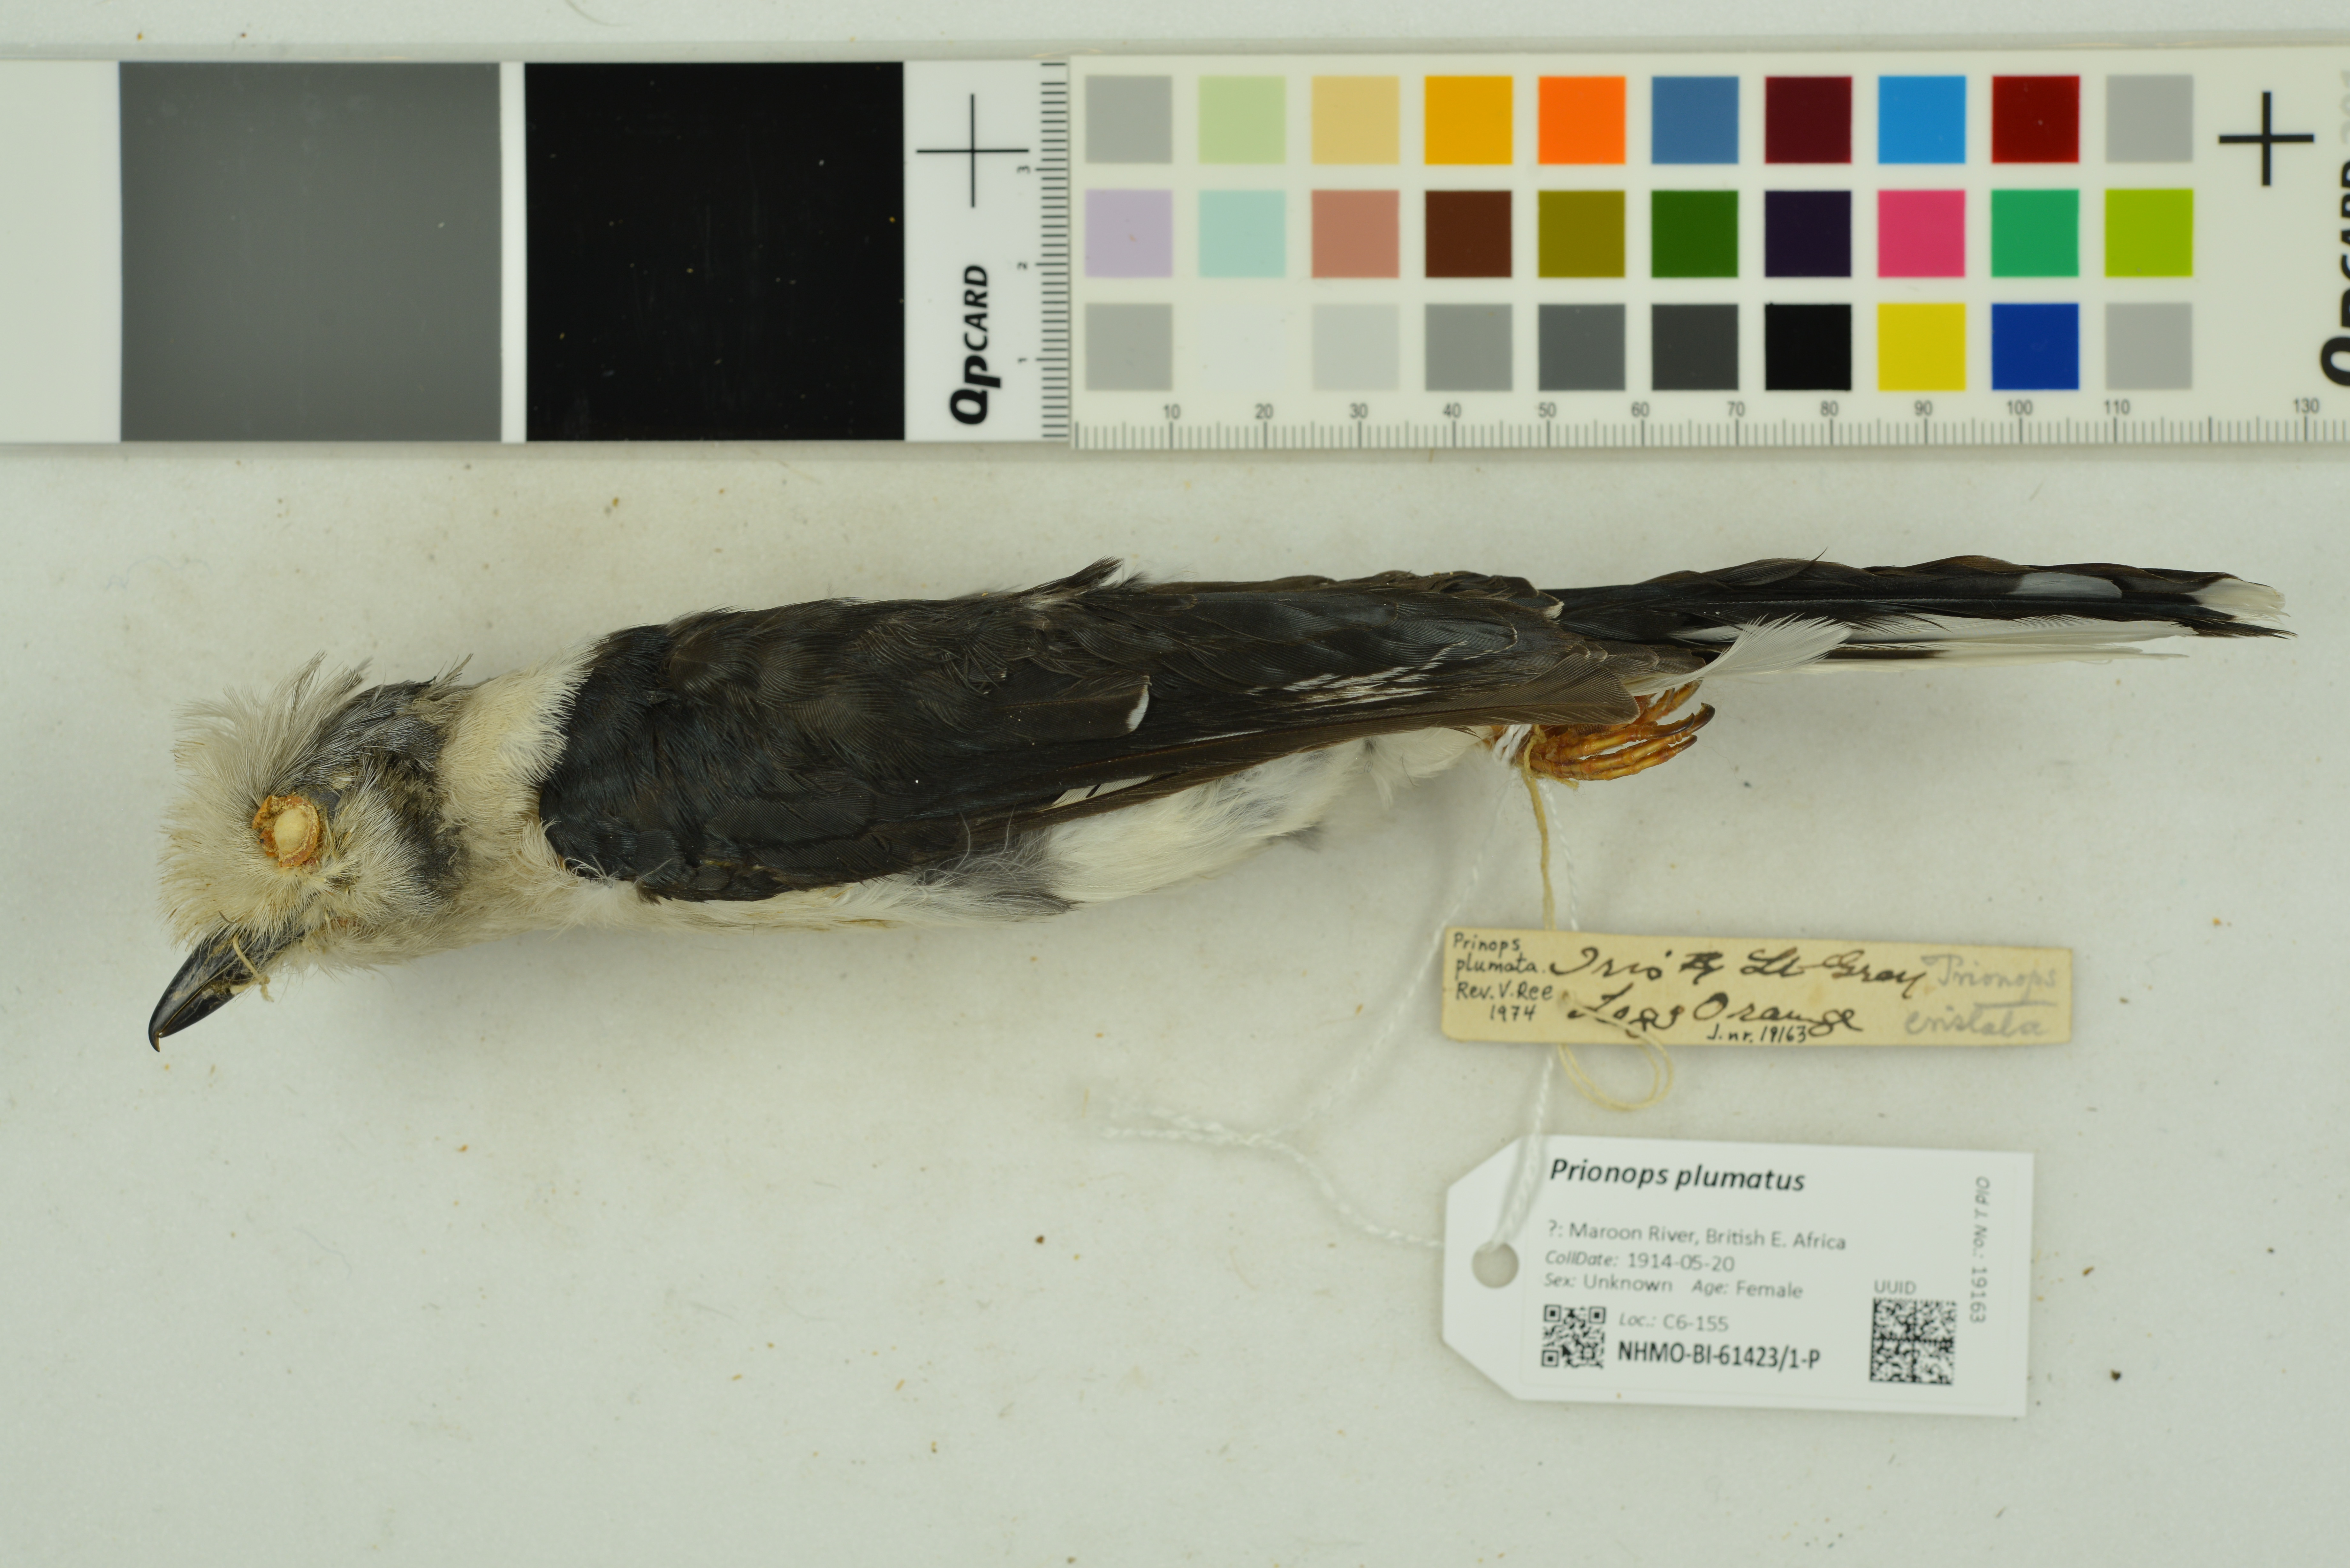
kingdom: Animalia
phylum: Chordata
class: Aves
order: Passeriformes
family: Prionopidae
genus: Prionops
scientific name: Prionops plumatus
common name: White-crested helmetshrike
